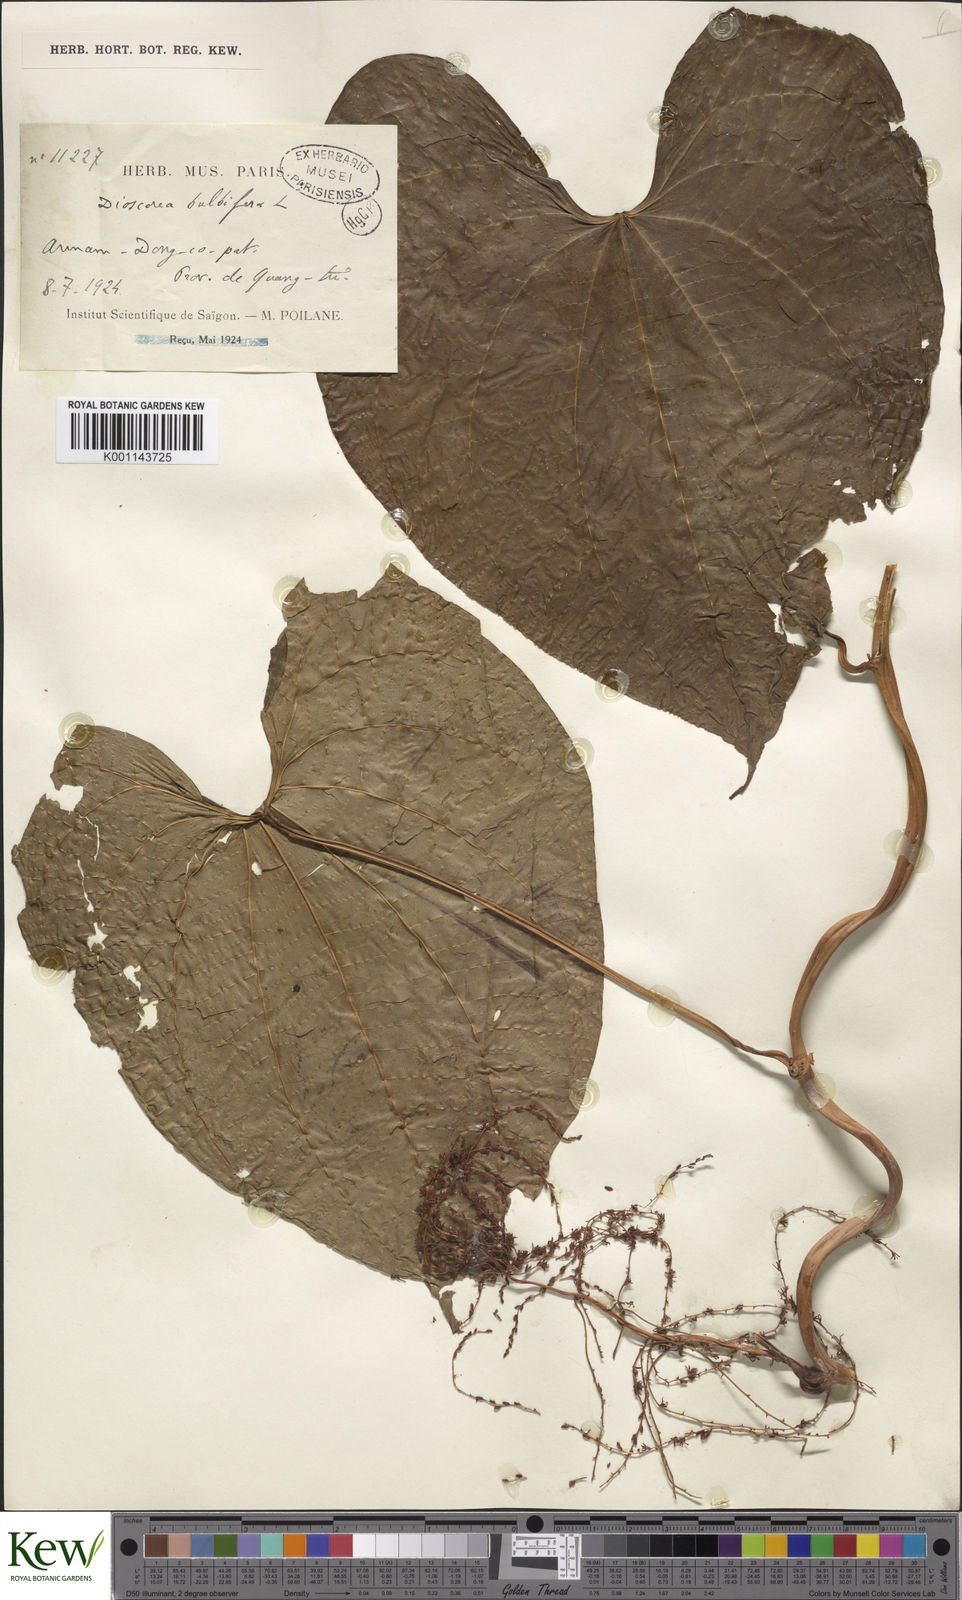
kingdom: Plantae
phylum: Tracheophyta
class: Liliopsida
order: Dioscoreales
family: Dioscoreaceae
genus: Dioscorea
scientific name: Dioscorea bulbifera
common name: Air yam
